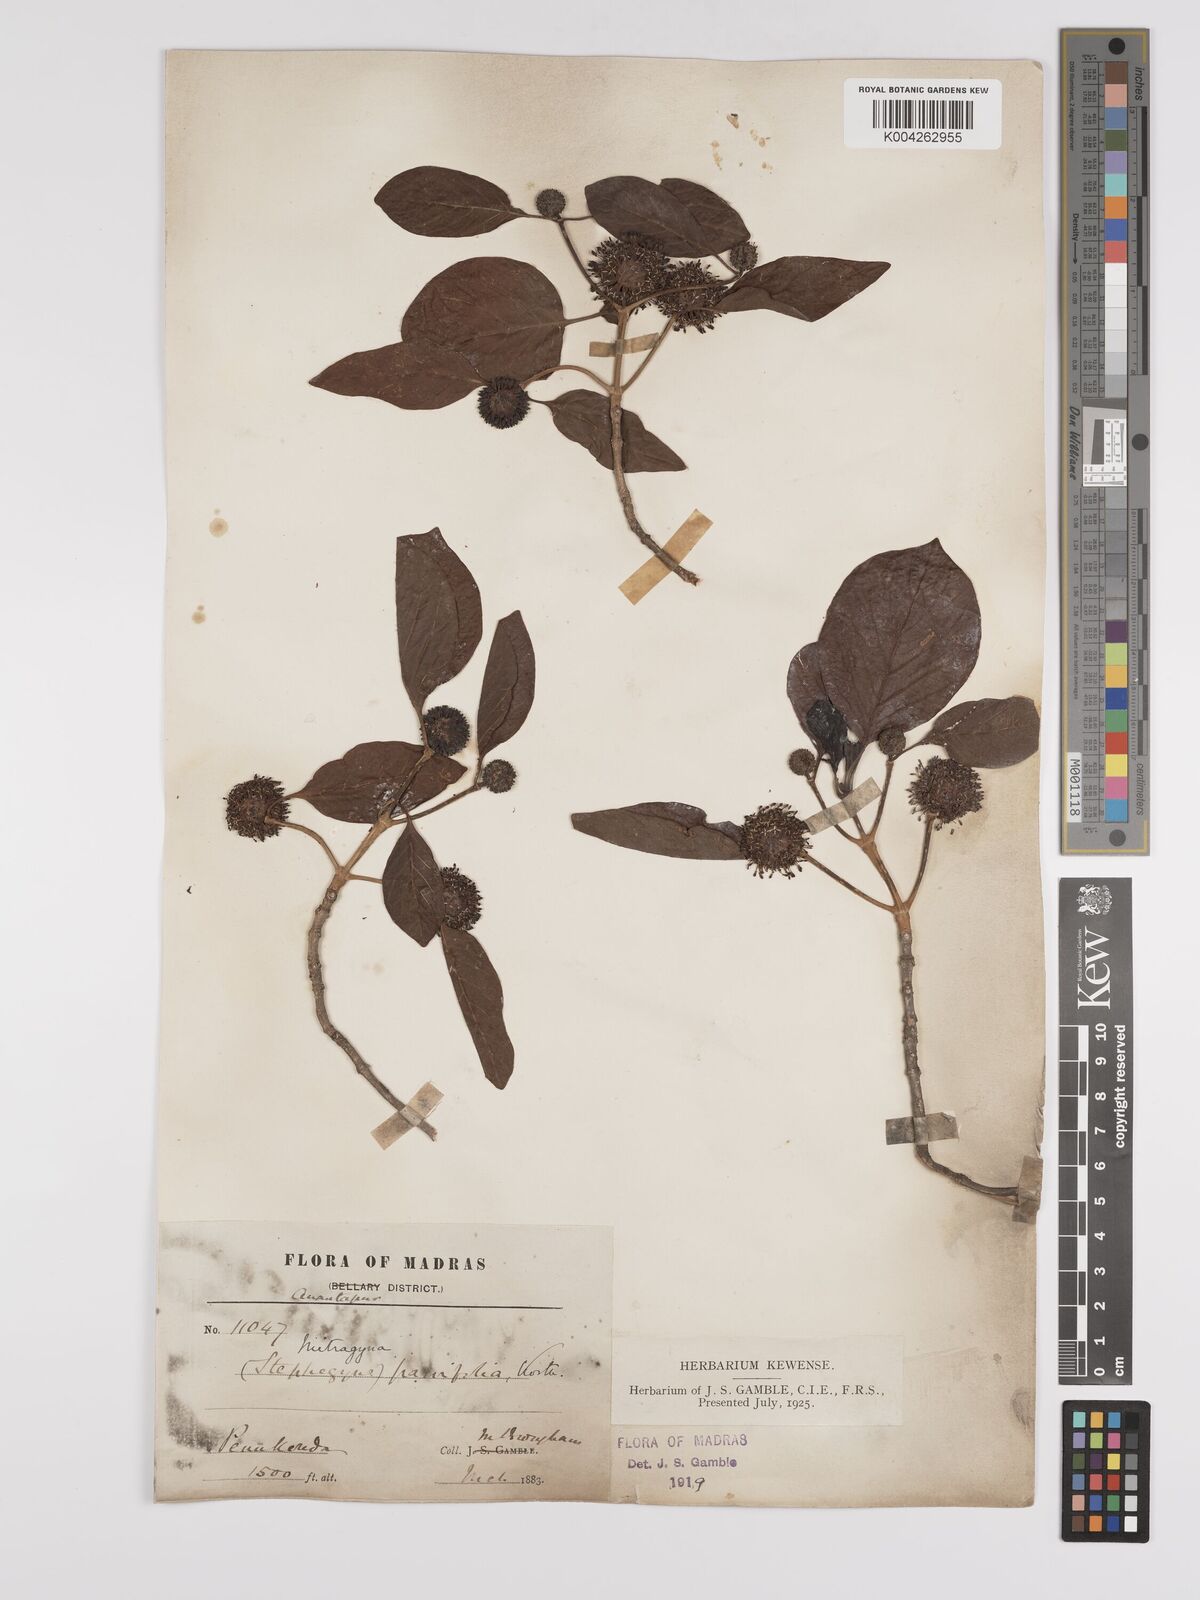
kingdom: Plantae
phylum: Tracheophyta
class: Magnoliopsida
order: Gentianales
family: Rubiaceae
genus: Mitragyna
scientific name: Mitragyna parvifolia
